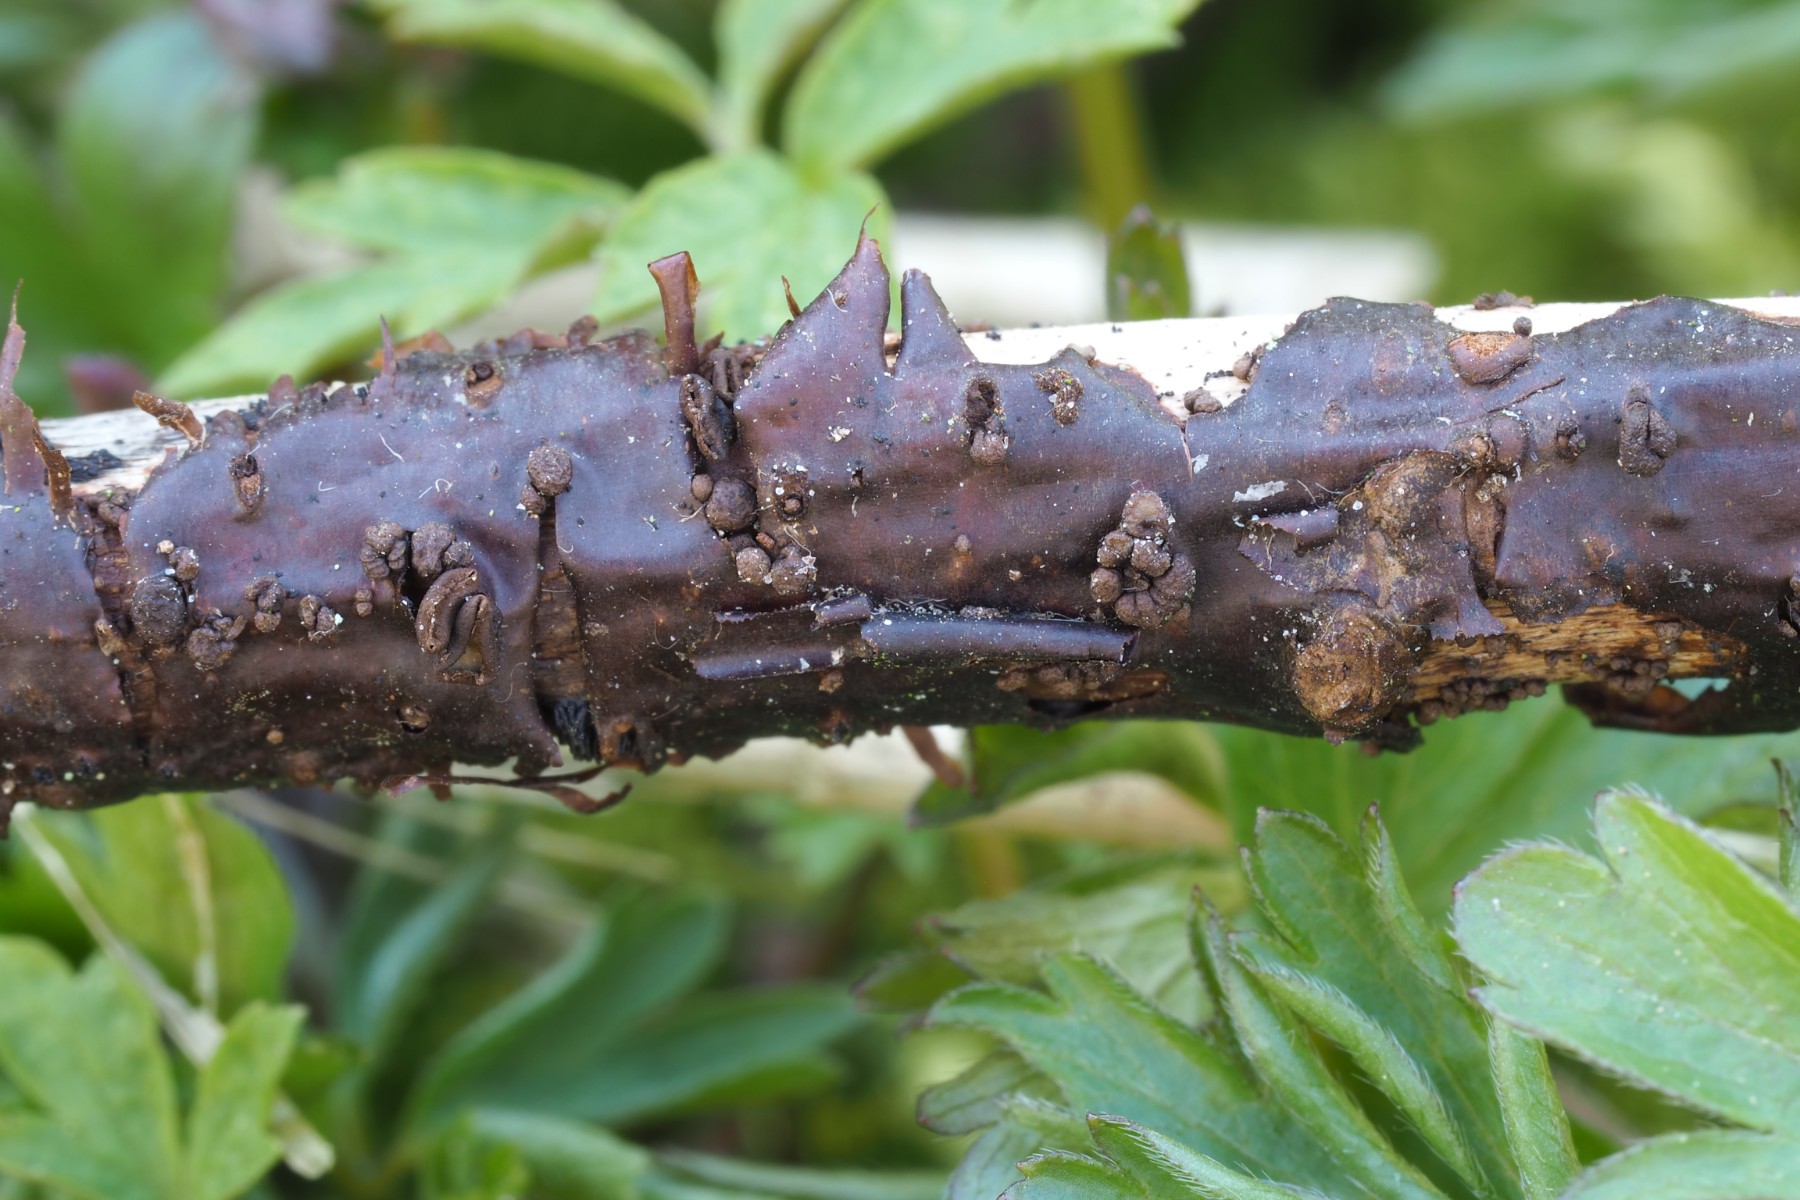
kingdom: Fungi
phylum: Ascomycota
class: Leotiomycetes
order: Helotiales
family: Godroniaceae
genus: Godronia
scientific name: Godronia uberiformis
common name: solbær-urneskive
